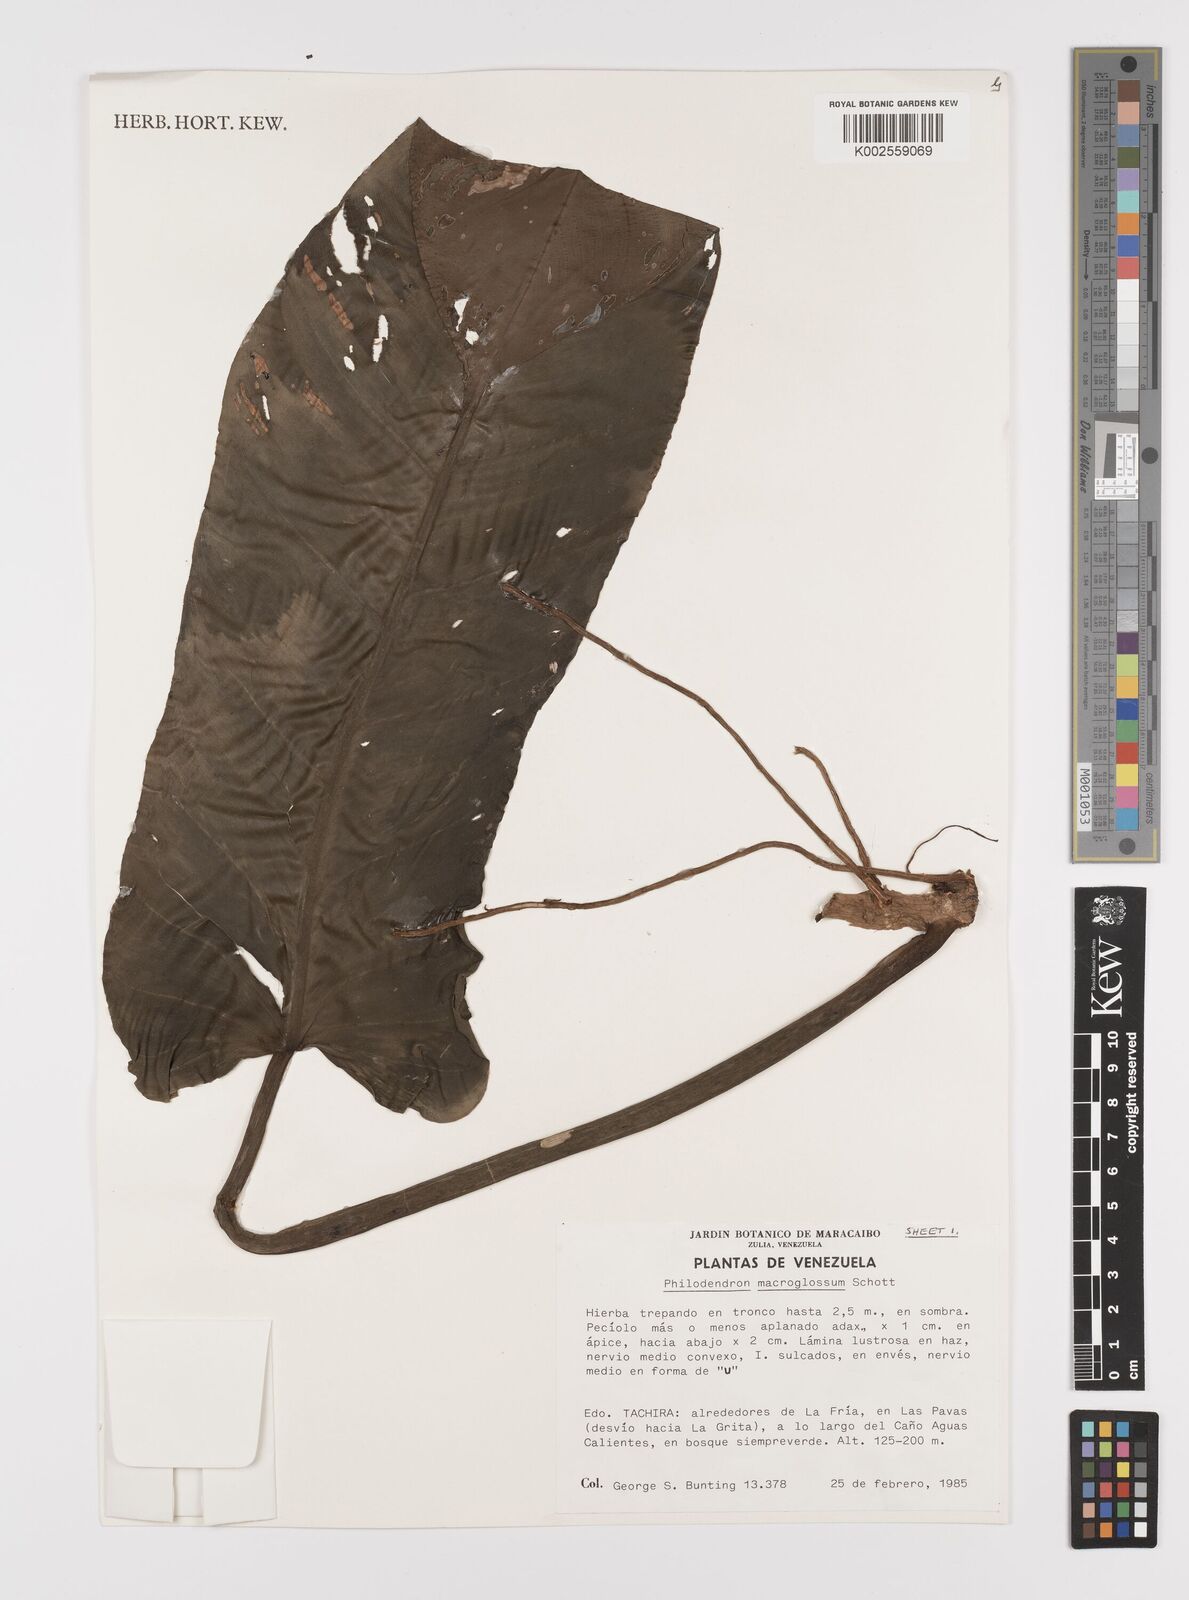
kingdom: Plantae
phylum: Tracheophyta
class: Liliopsida
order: Alismatales
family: Araceae
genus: Philodendron
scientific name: Philodendron macroglossum
